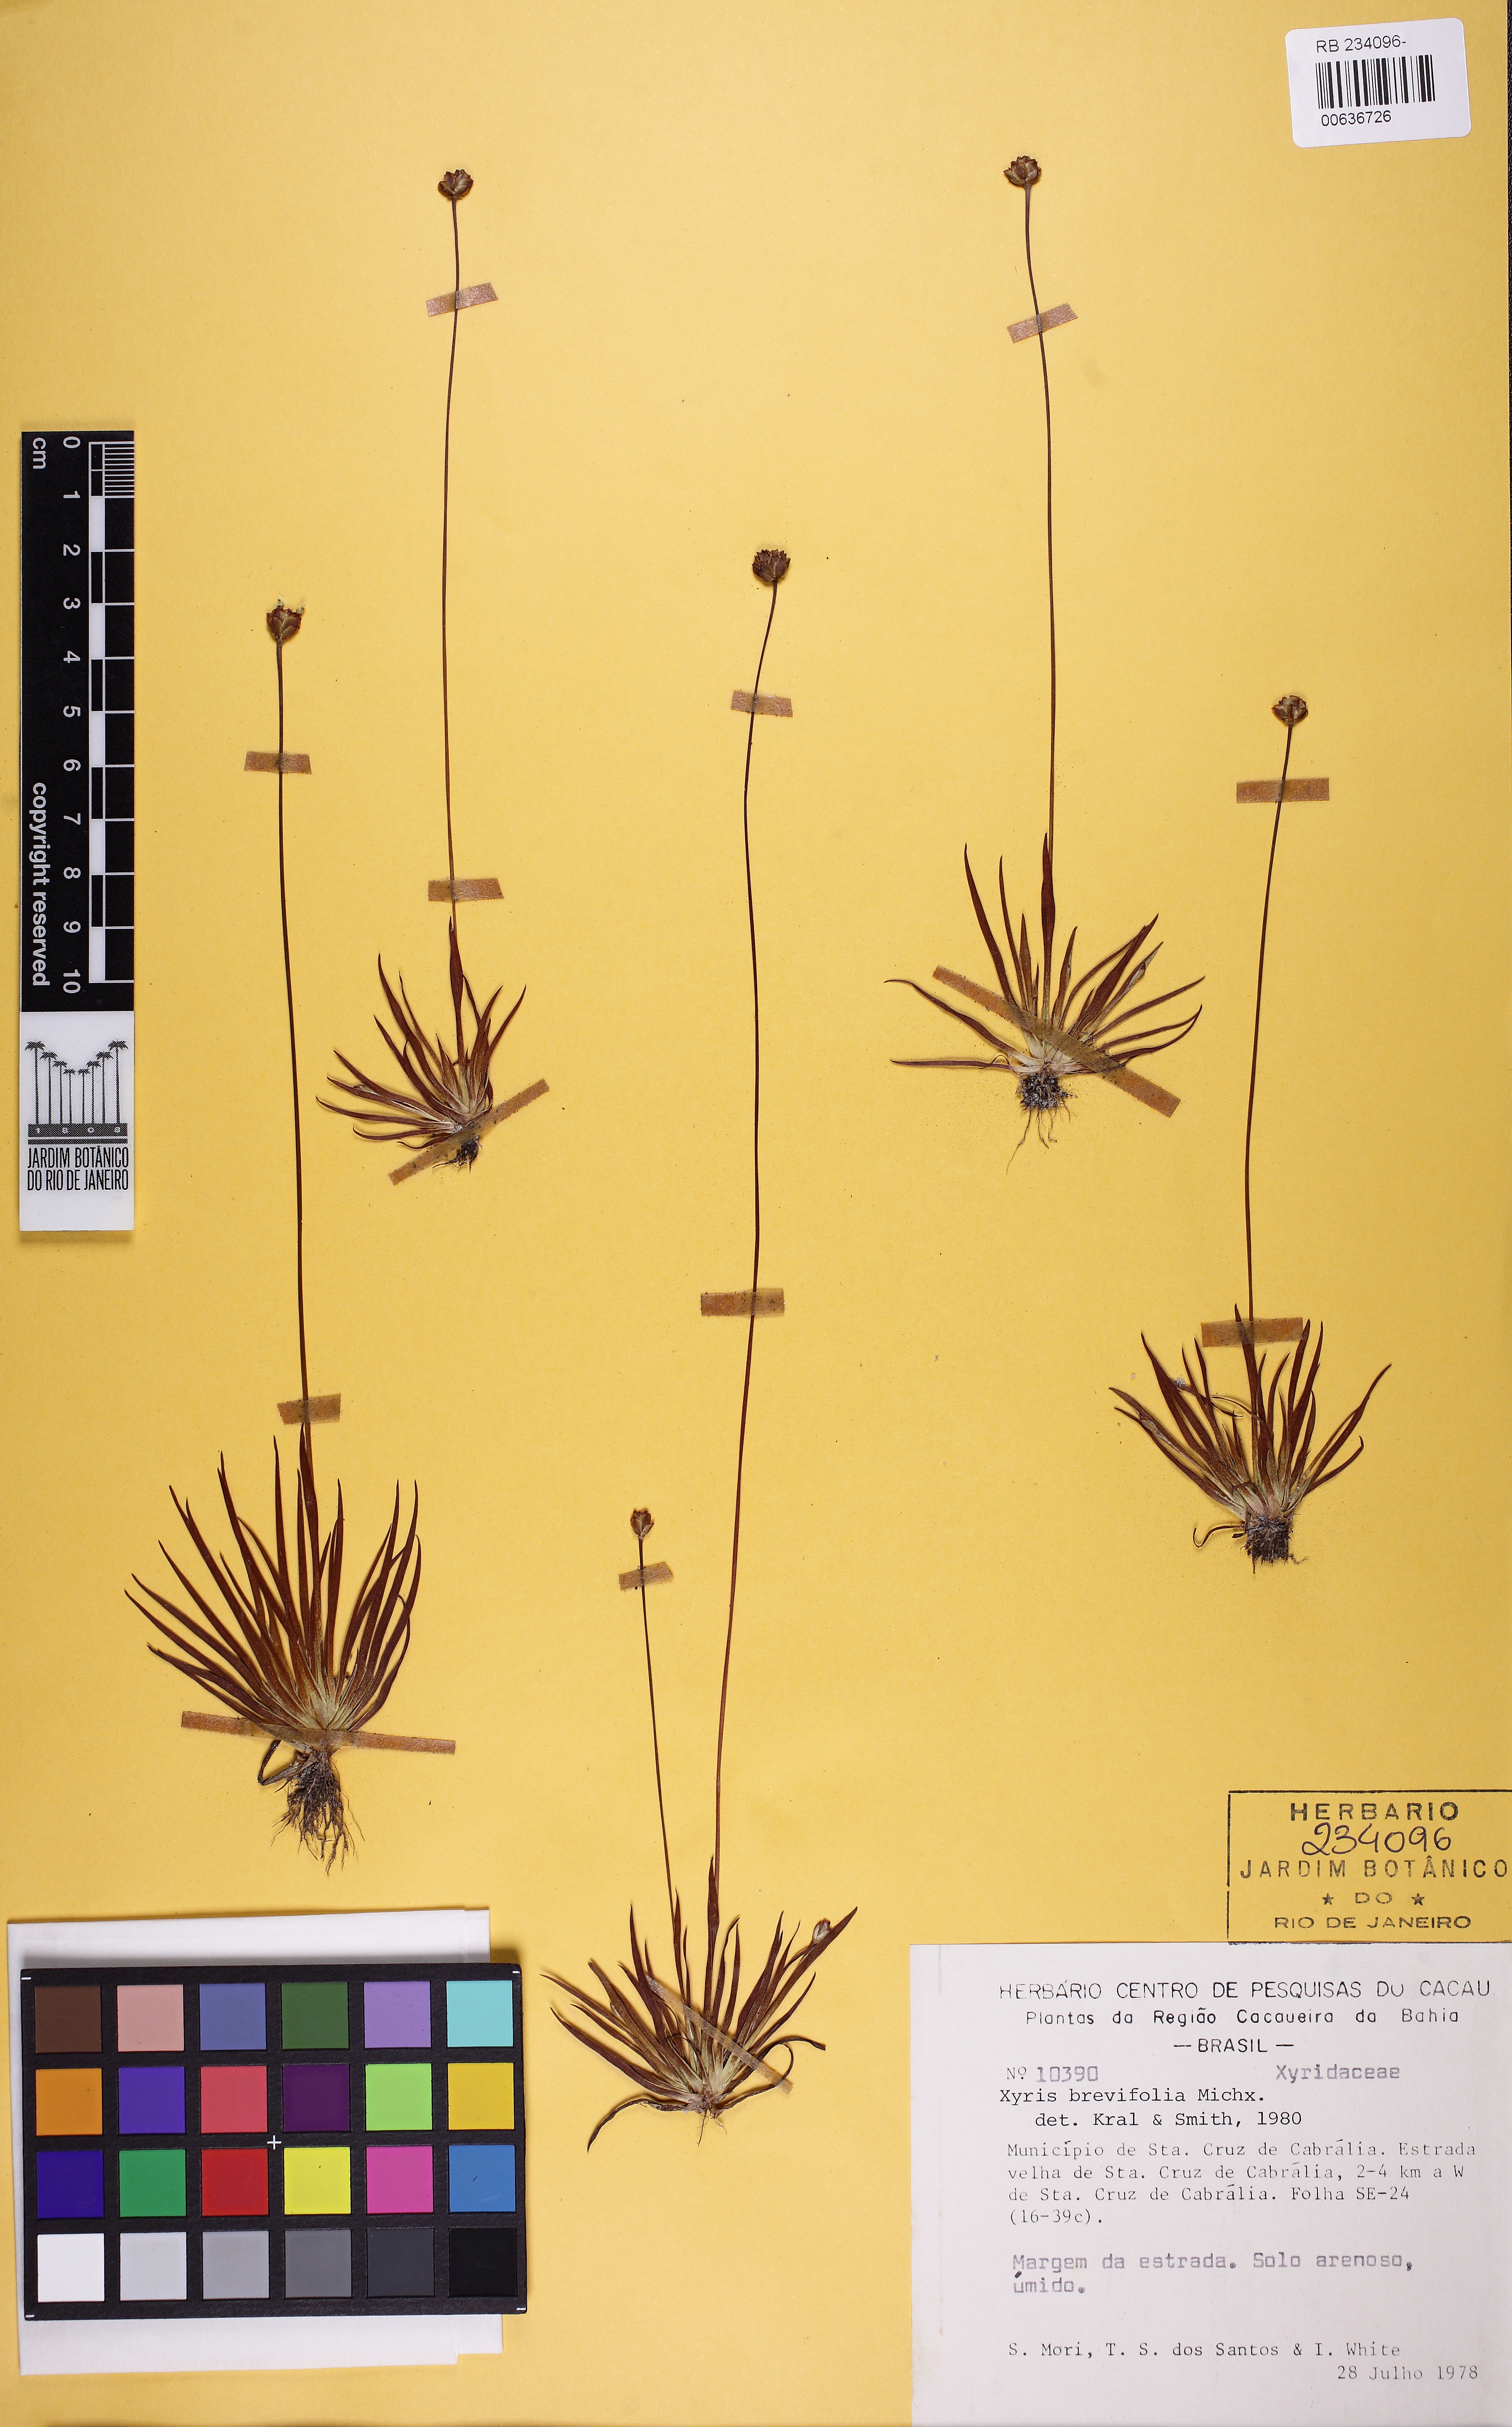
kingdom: Plantae
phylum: Tracheophyta
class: Liliopsida
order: Poales
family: Xyridaceae
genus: Xyris
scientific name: Xyris brevifolia
